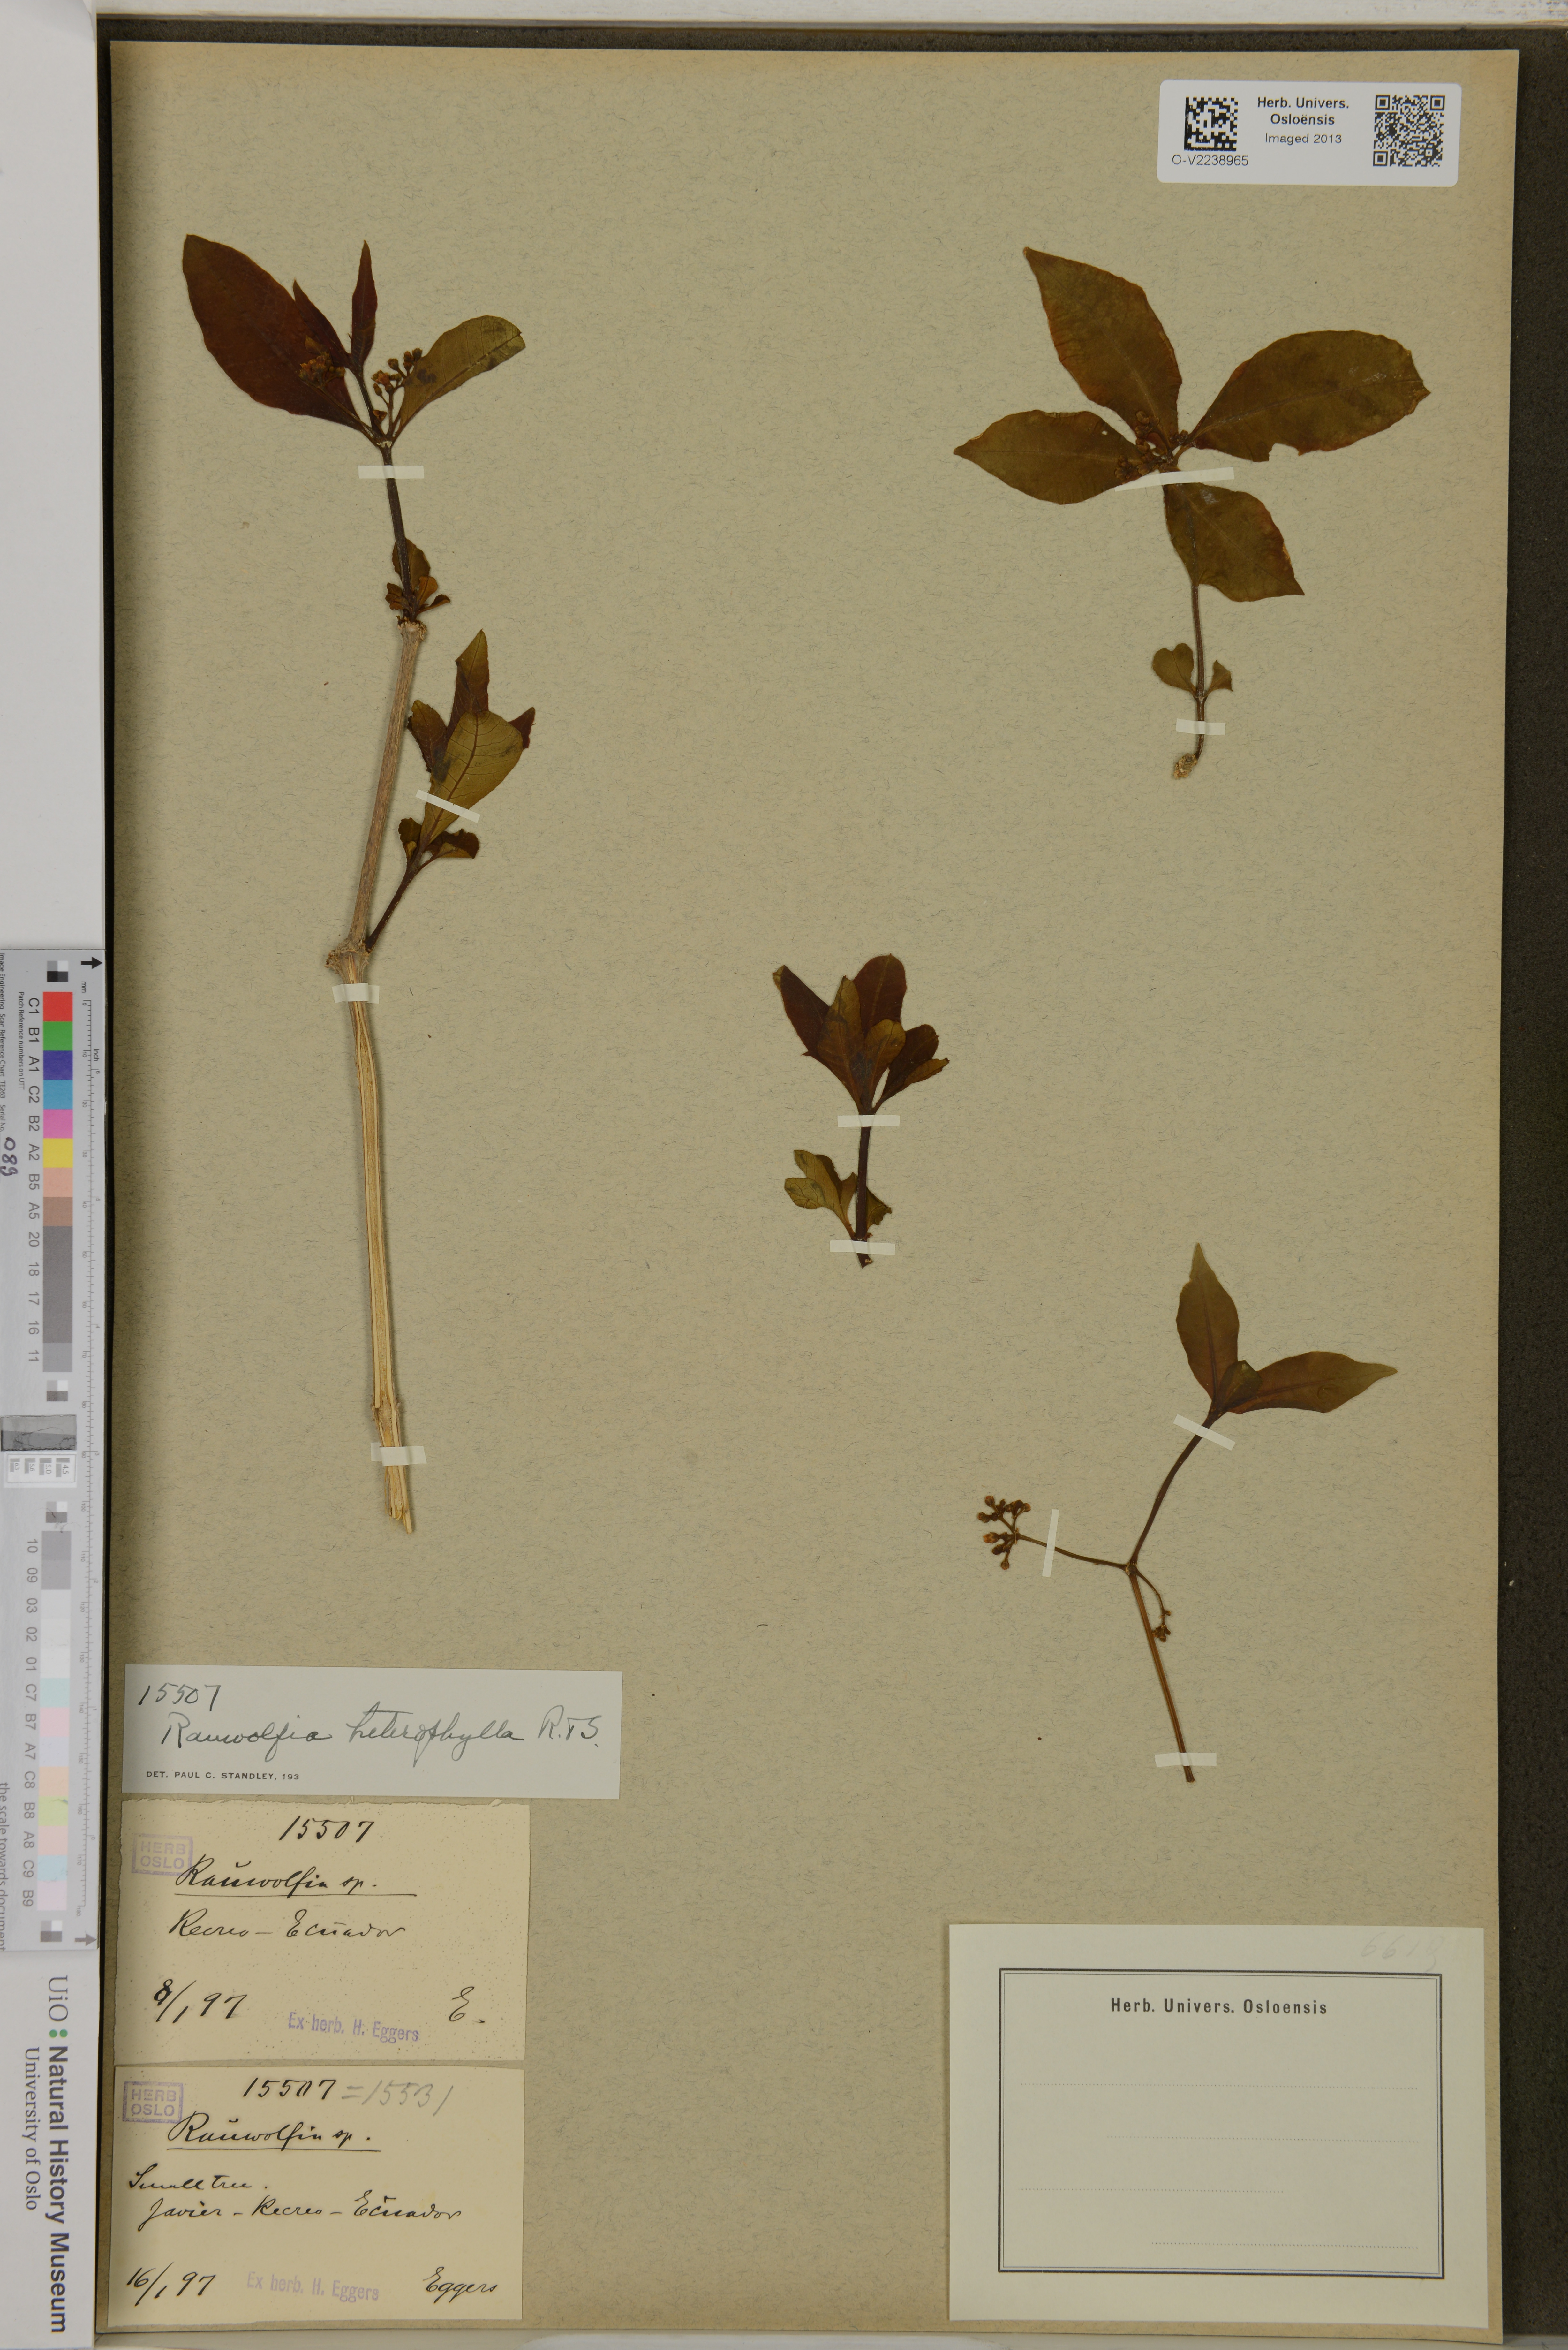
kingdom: Plantae
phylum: Tracheophyta
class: Magnoliopsida
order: Gentianales
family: Apocynaceae
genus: Rauvolfia
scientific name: Rauvolfia
